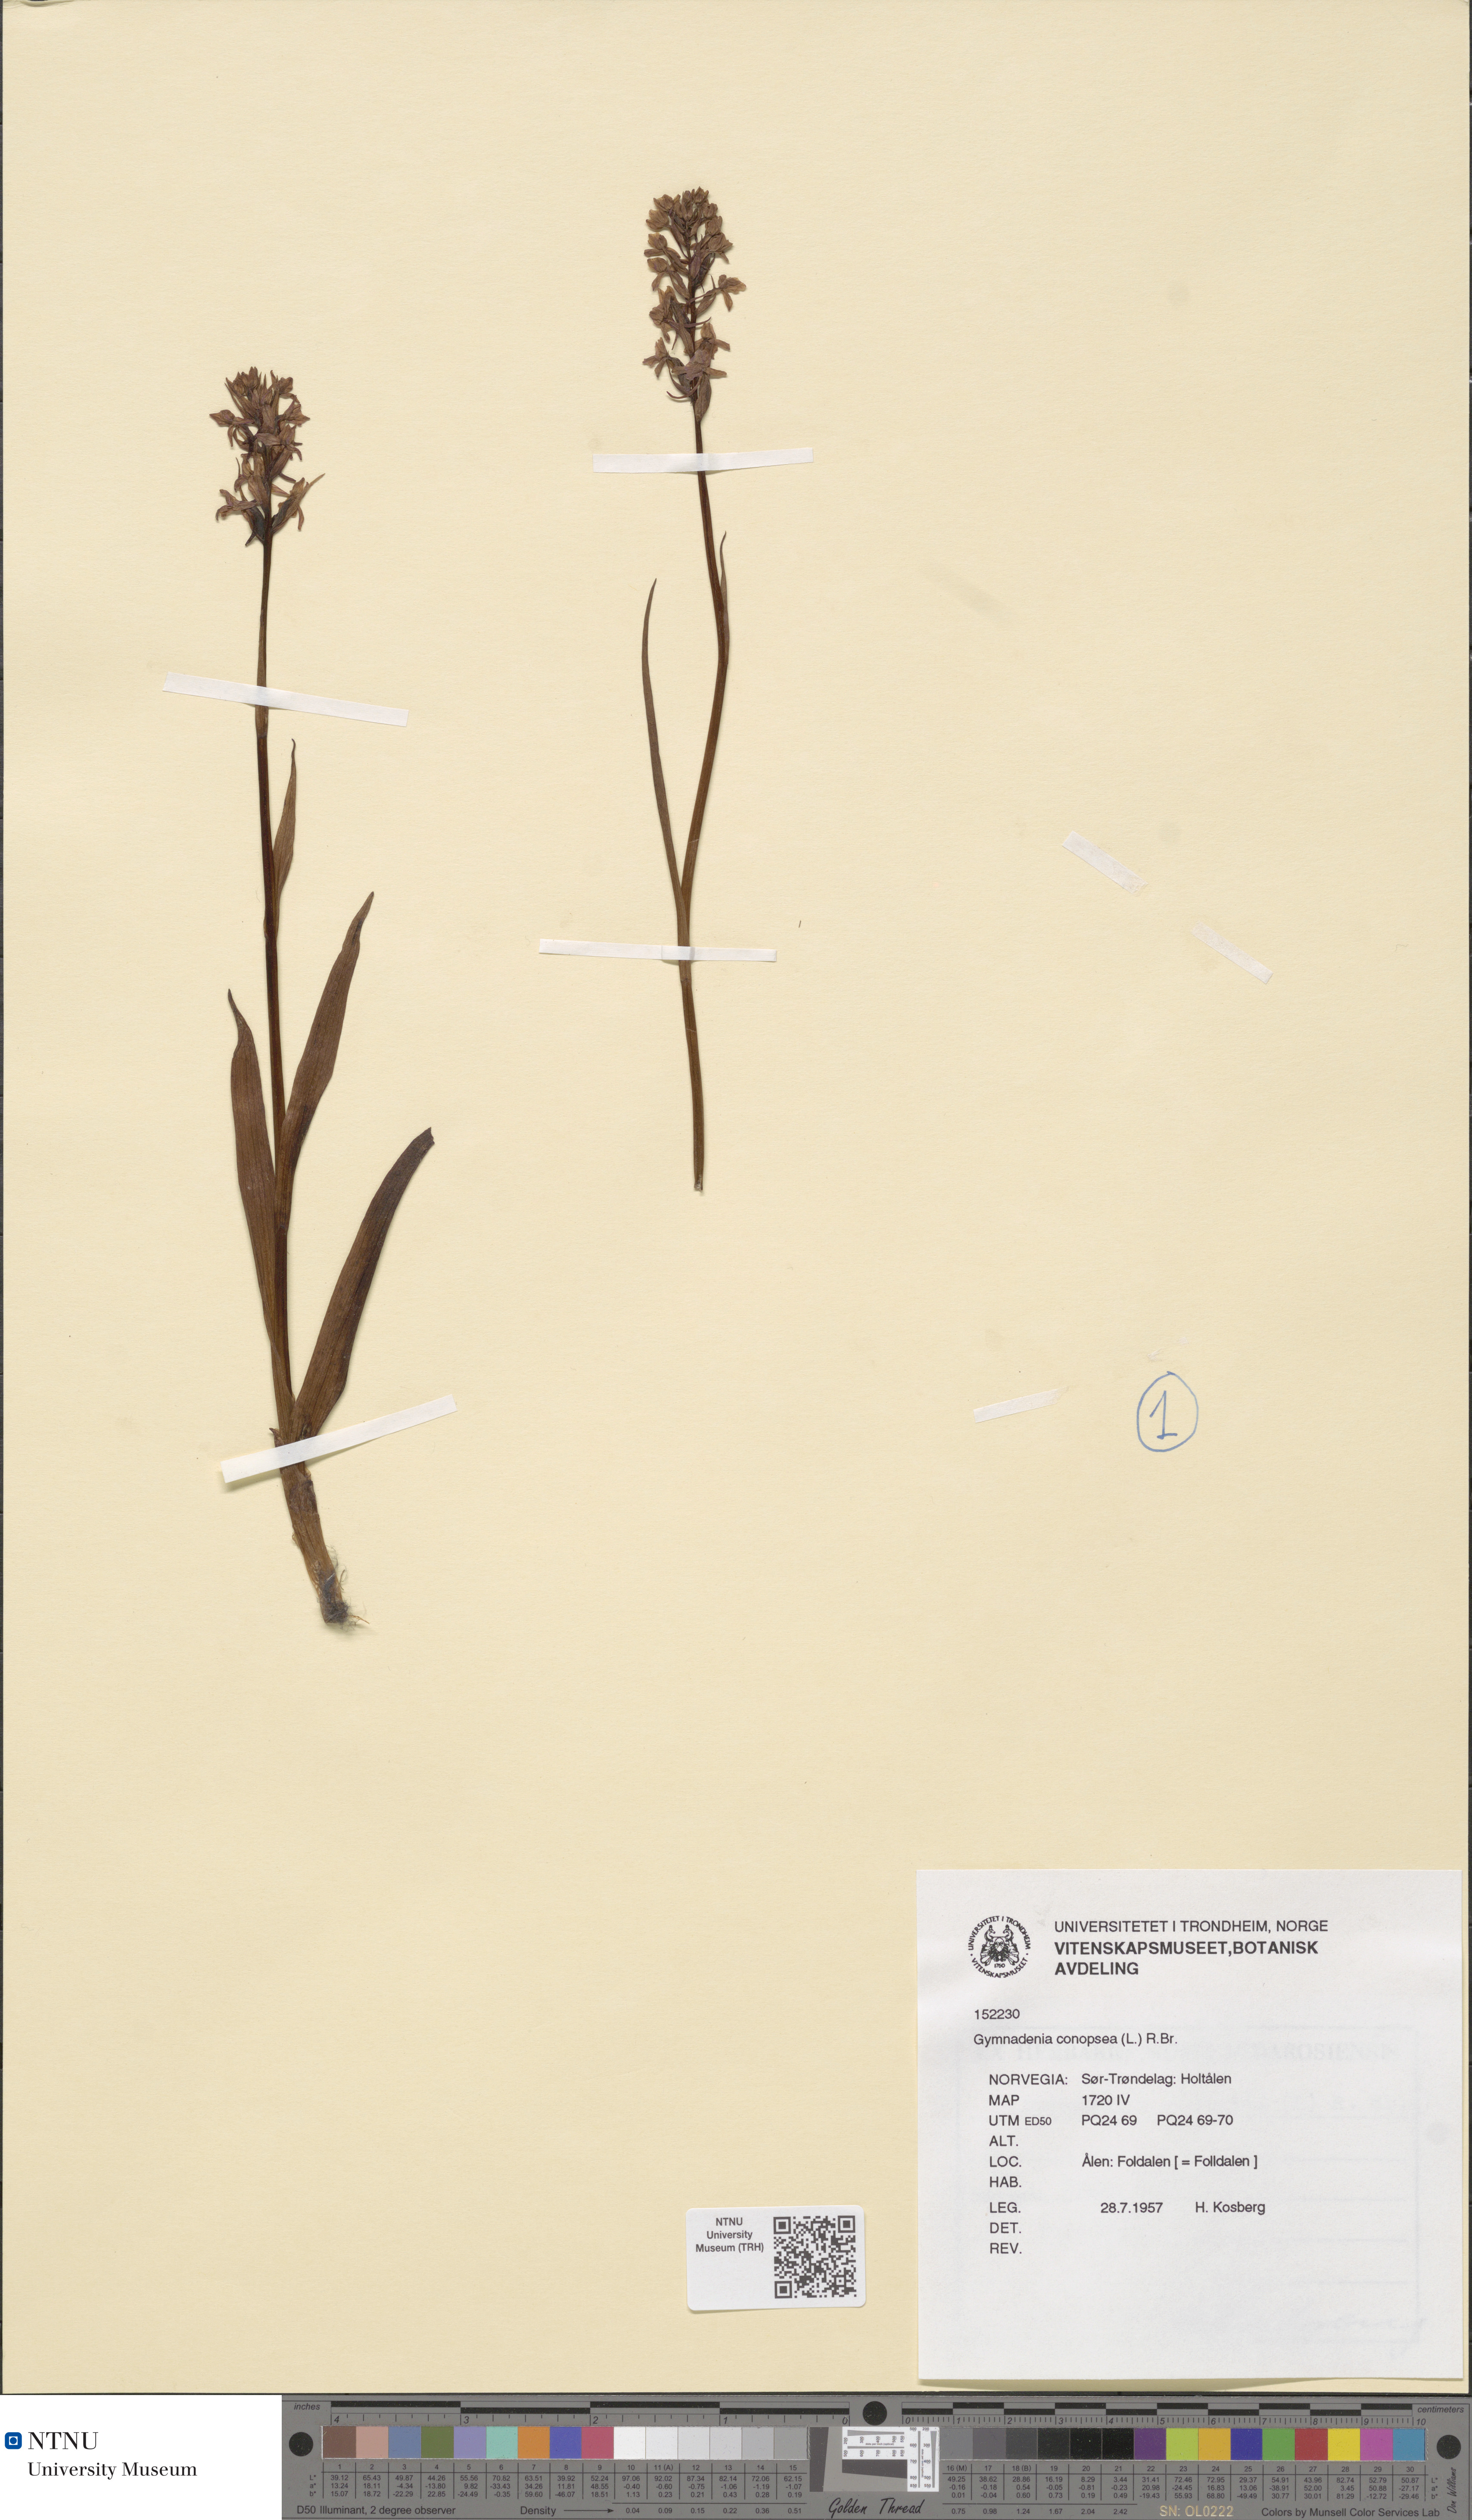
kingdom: Plantae
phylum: Tracheophyta
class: Liliopsida
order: Asparagales
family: Orchidaceae
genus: Gymnadenia
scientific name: Gymnadenia conopsea
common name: Fragrant orchid
